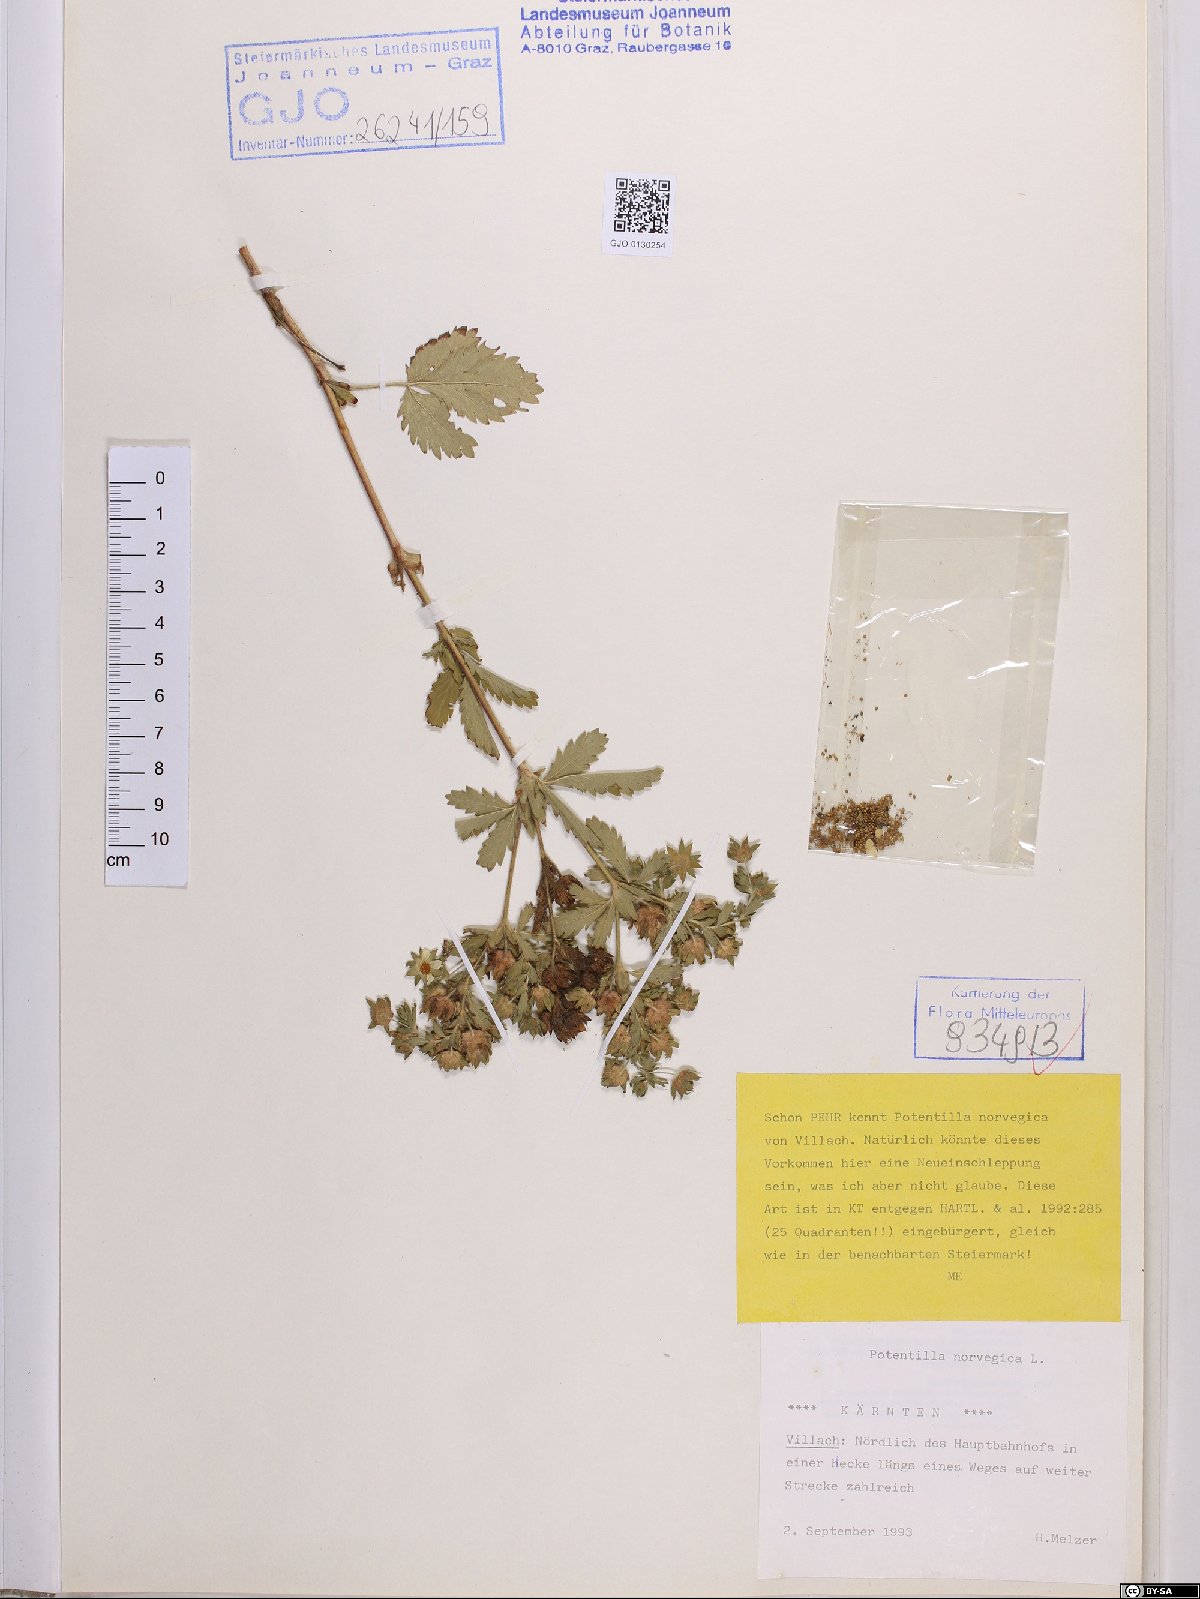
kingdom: Plantae
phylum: Tracheophyta
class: Magnoliopsida
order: Rosales
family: Rosaceae
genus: Potentilla
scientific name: Potentilla norvegica
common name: Ternate-leaved cinquefoil
